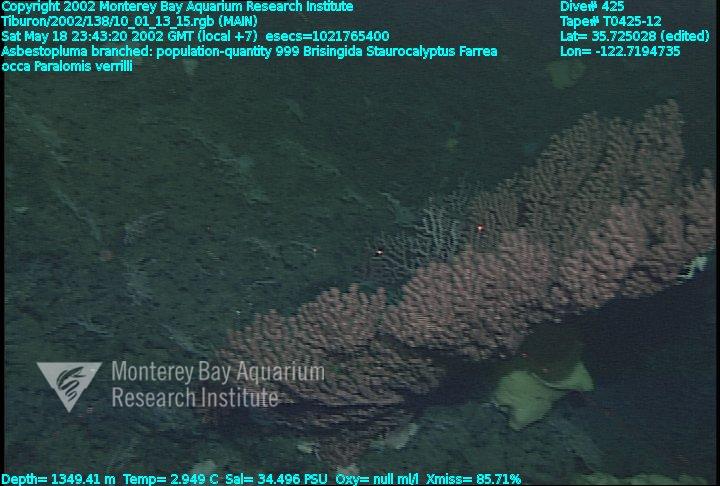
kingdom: Animalia
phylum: Porifera
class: Demospongiae
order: Poecilosclerida
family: Cladorhizidae
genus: Asbestopluma
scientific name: Asbestopluma monticola
